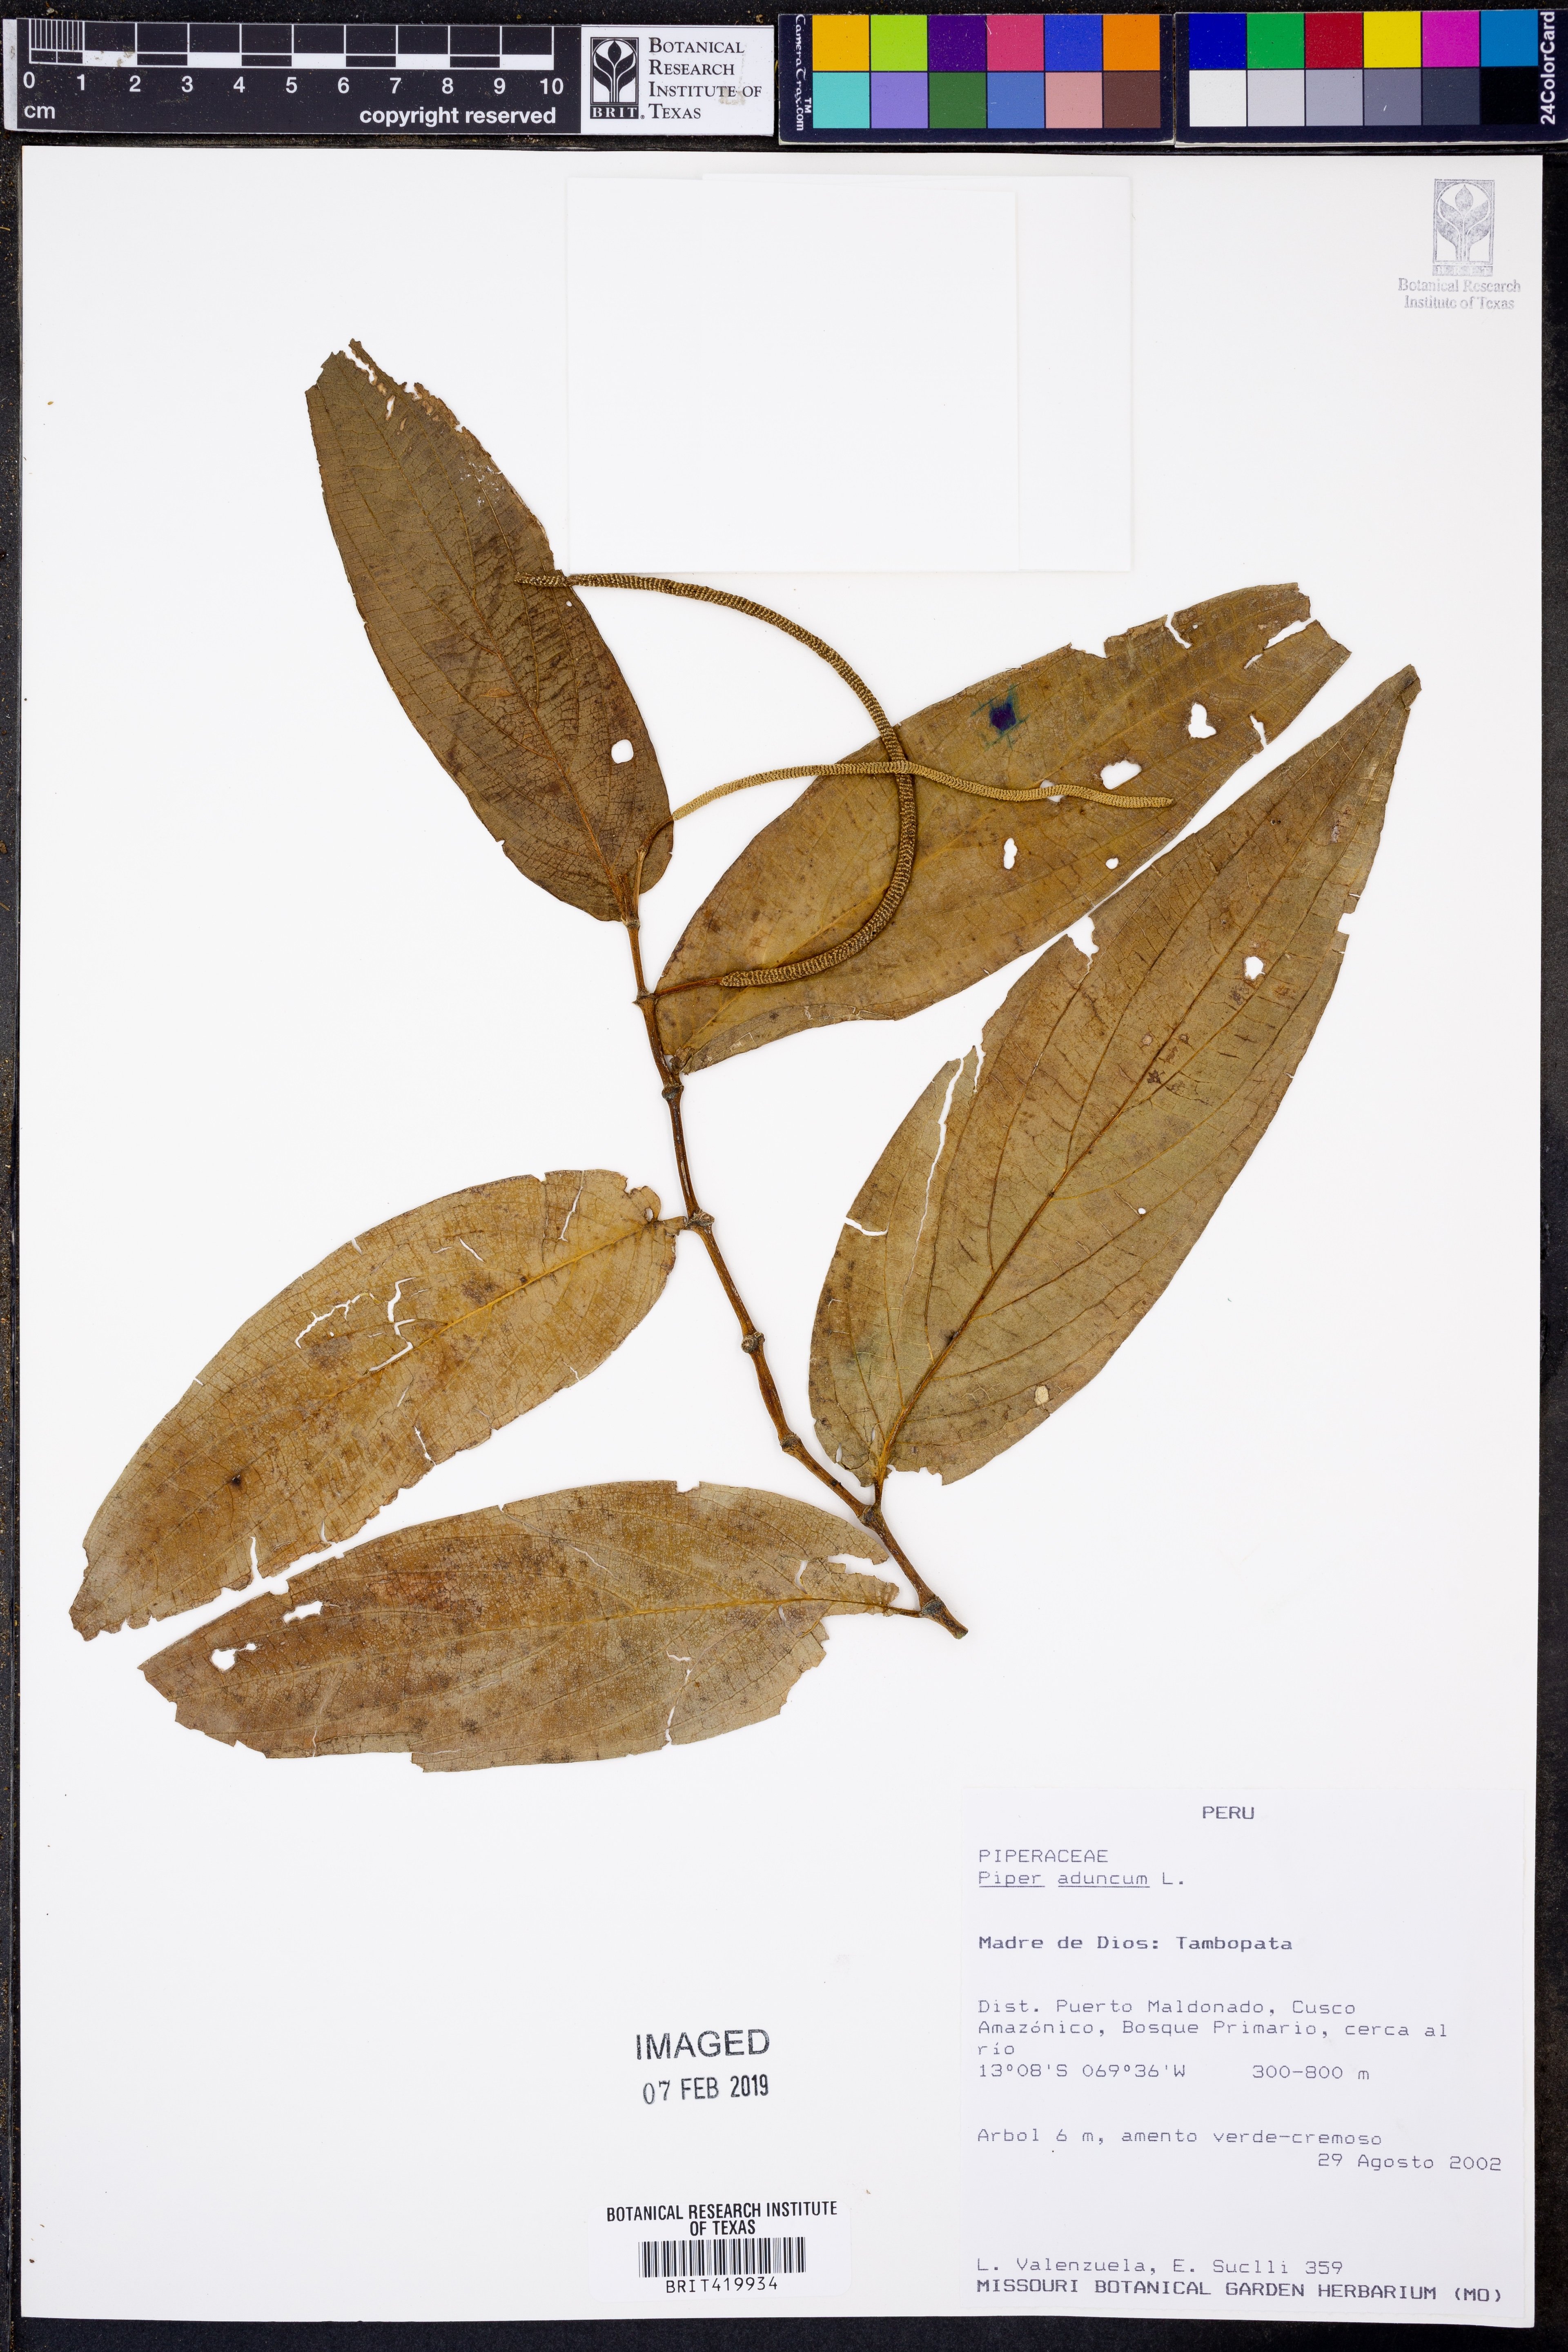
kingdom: Plantae
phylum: Tracheophyta
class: Magnoliopsida
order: Piperales
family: Piperaceae
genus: Piper
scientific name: Piper aduncum
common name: Spiked pepper
